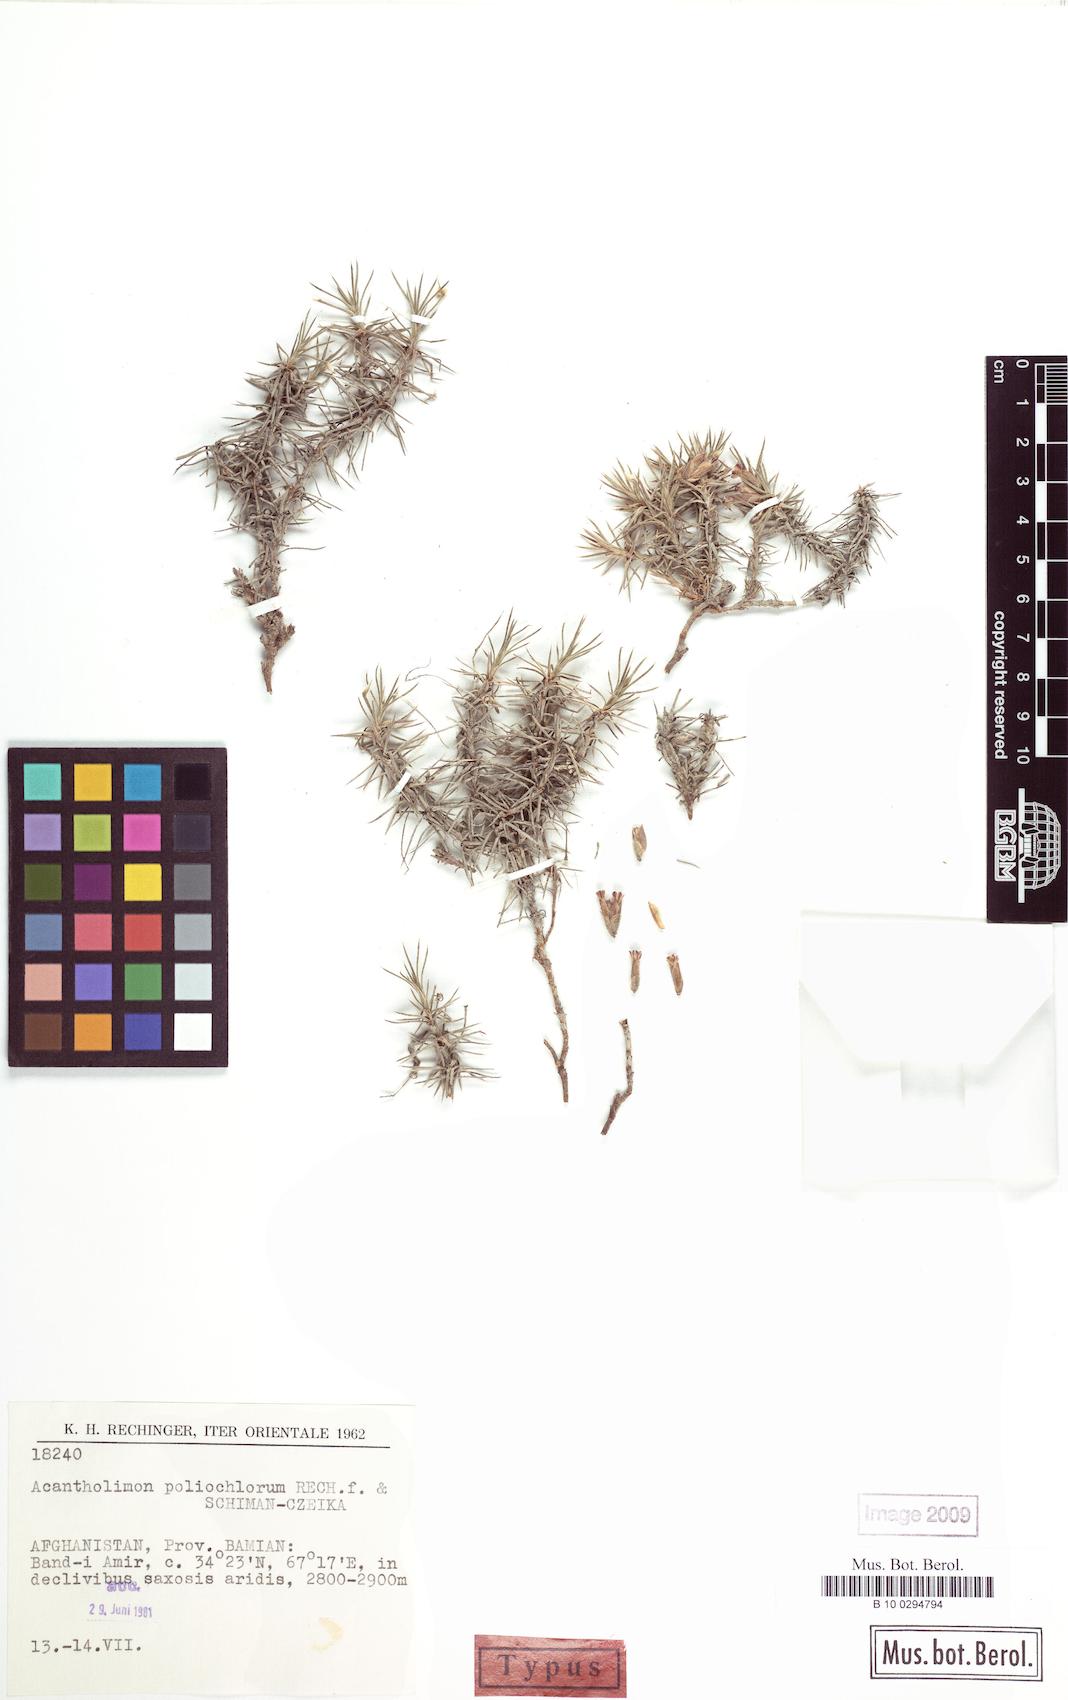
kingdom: Plantae
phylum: Tracheophyta
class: Magnoliopsida
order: Caryophyllales
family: Plumbaginaceae
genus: Acantholimon
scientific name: Acantholimon poliochlorum
